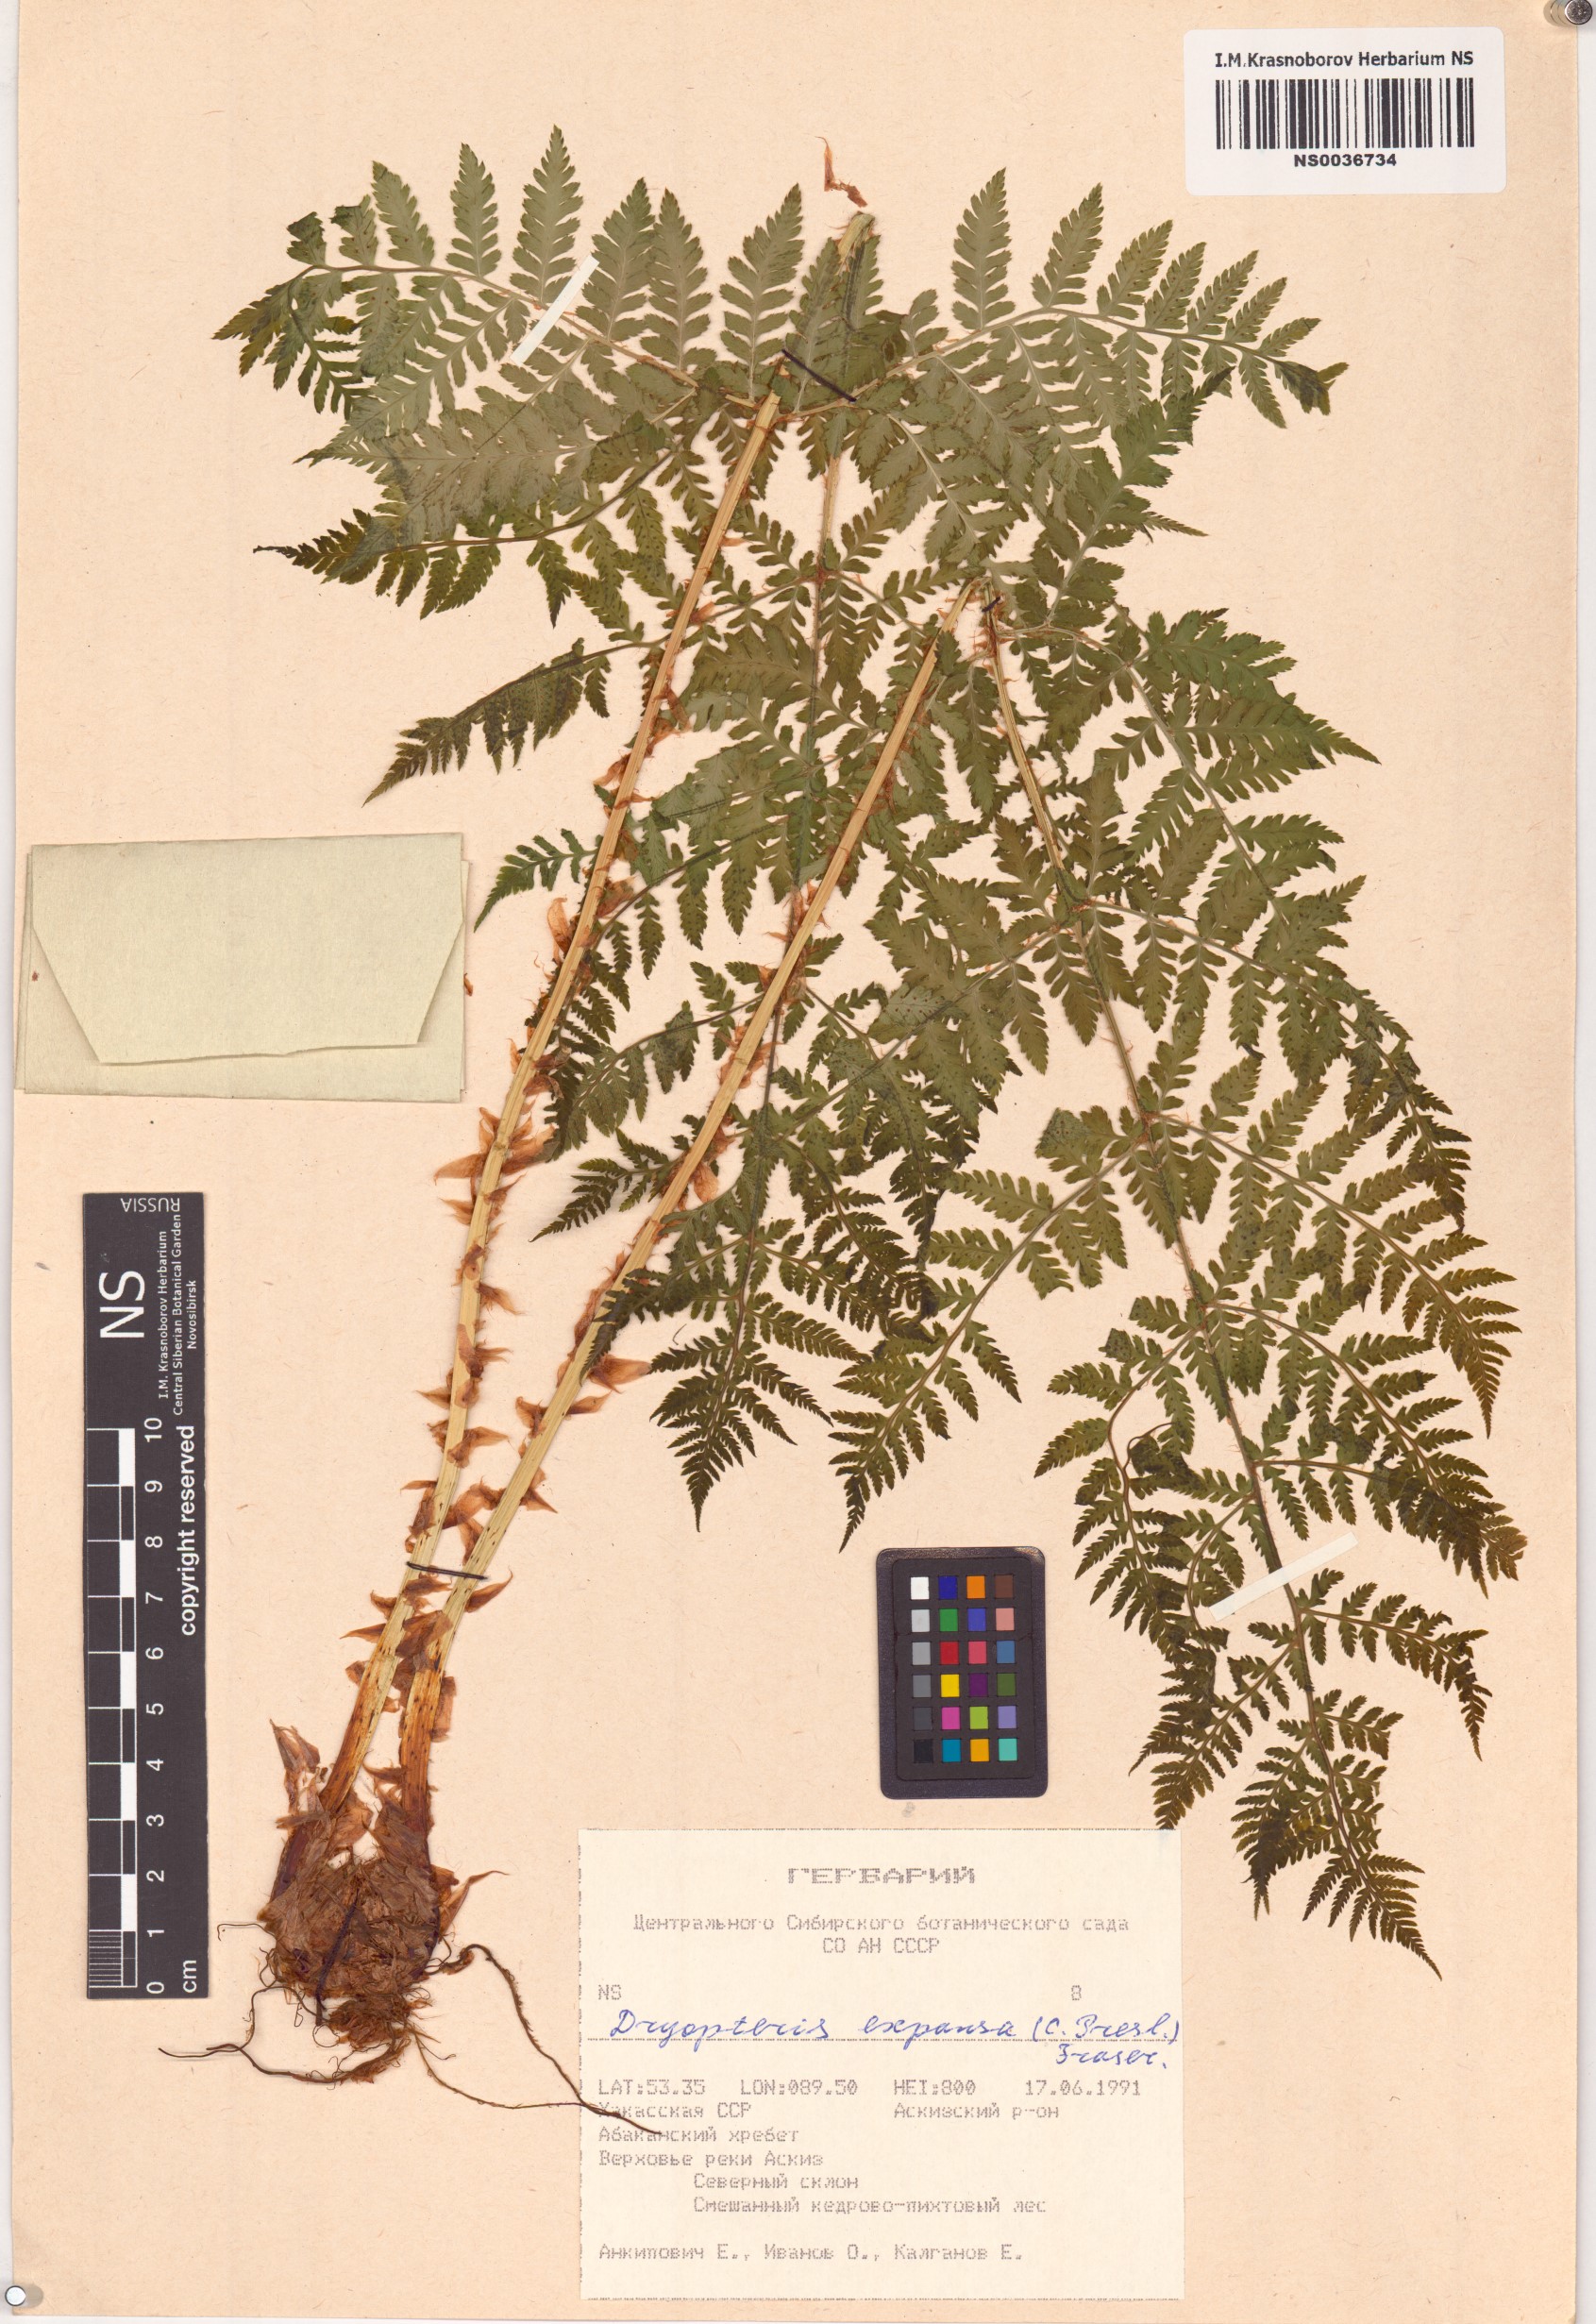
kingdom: Plantae
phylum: Tracheophyta
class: Polypodiopsida
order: Polypodiales
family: Dryopteridaceae
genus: Dryopteris
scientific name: Dryopteris expansa
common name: Northern buckler fern
